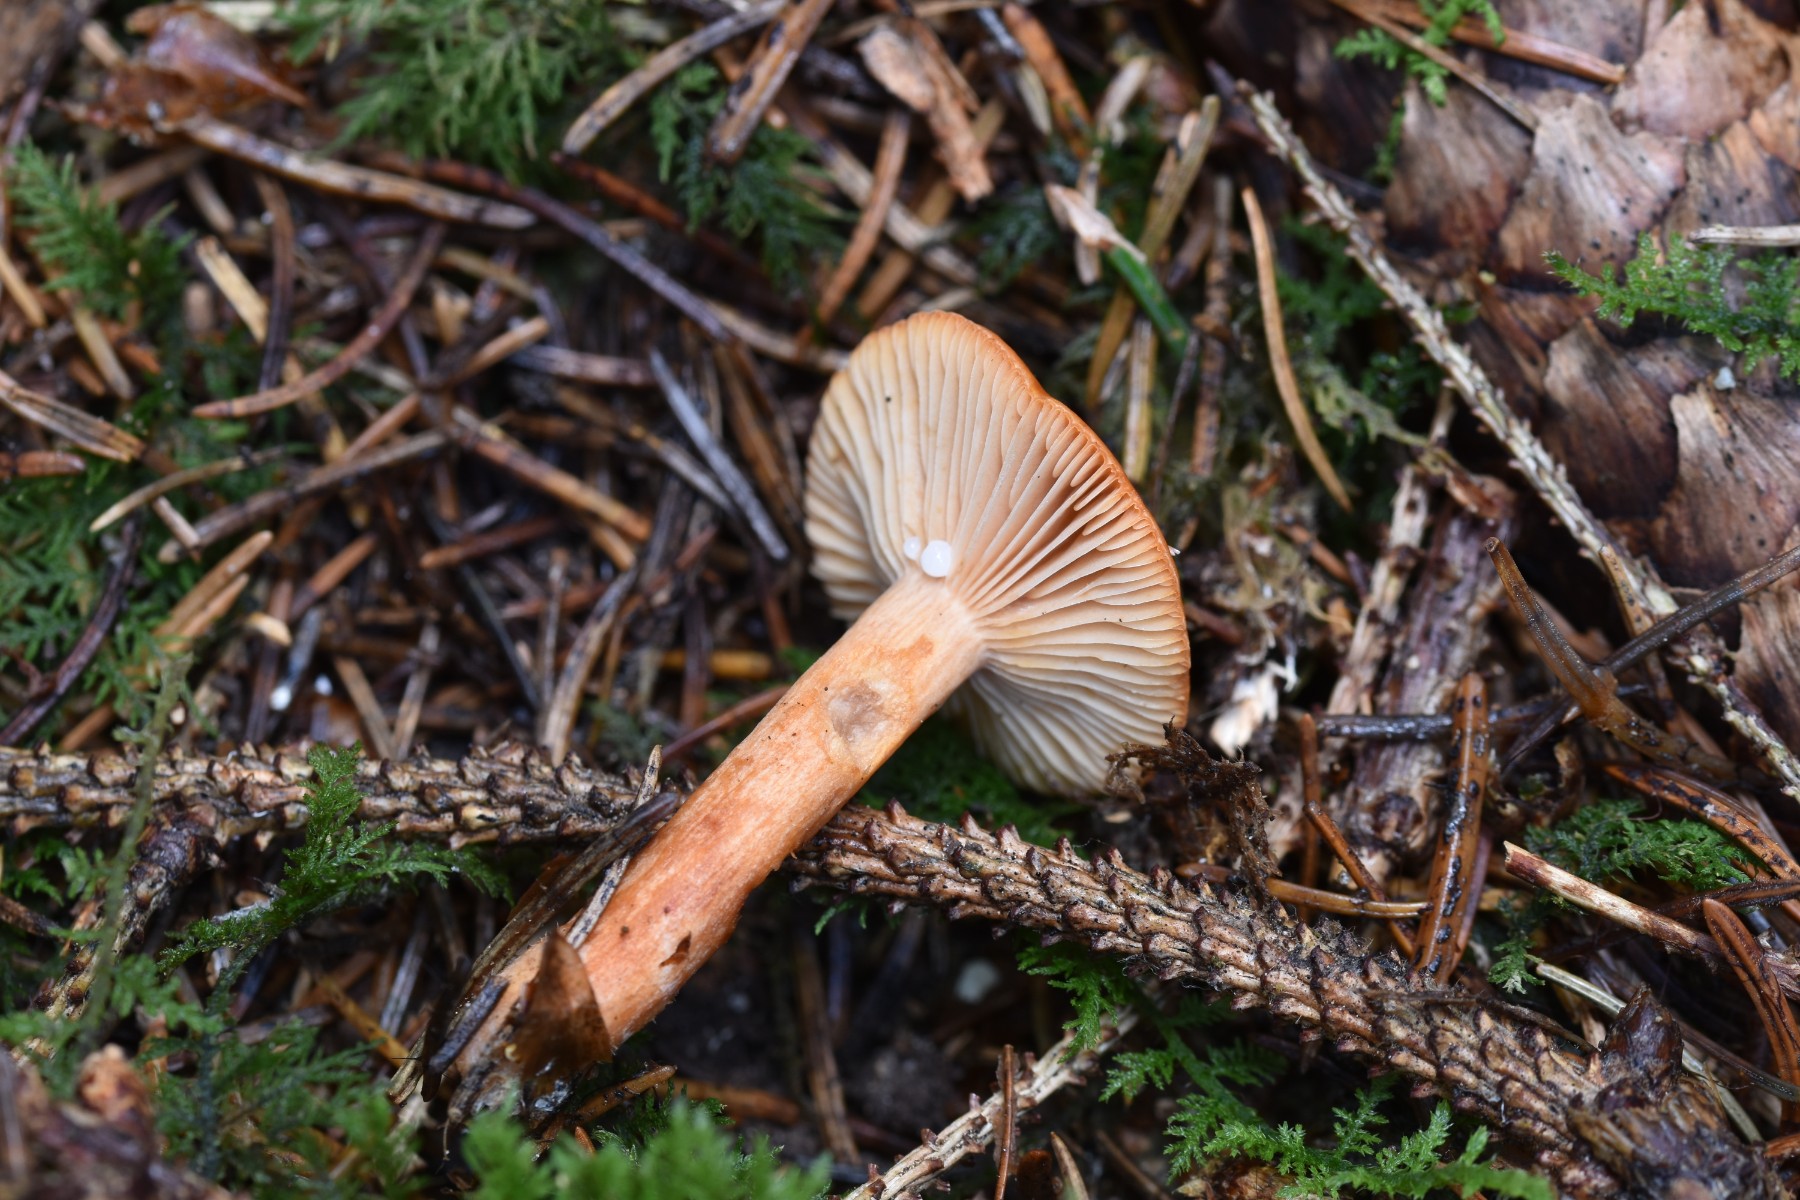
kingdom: Fungi
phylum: Basidiomycota
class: Agaricomycetes
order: Russulales
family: Russulaceae
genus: Lactarius
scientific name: Lactarius aurantiacus
